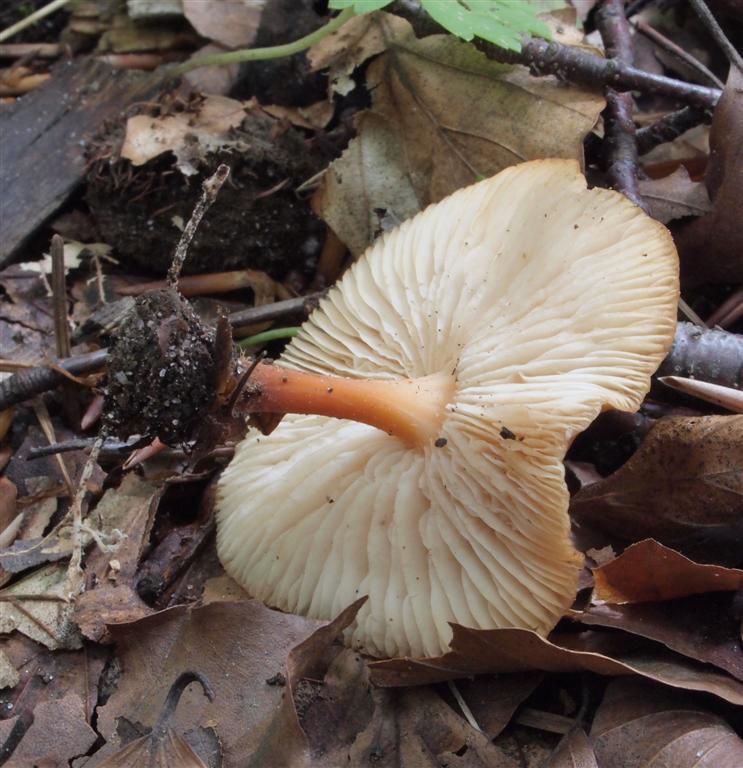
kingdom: Fungi
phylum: Basidiomycota
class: Agaricomycetes
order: Agaricales
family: Omphalotaceae
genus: Gymnopus
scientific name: Gymnopus dryophilus
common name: løv-fladhat
